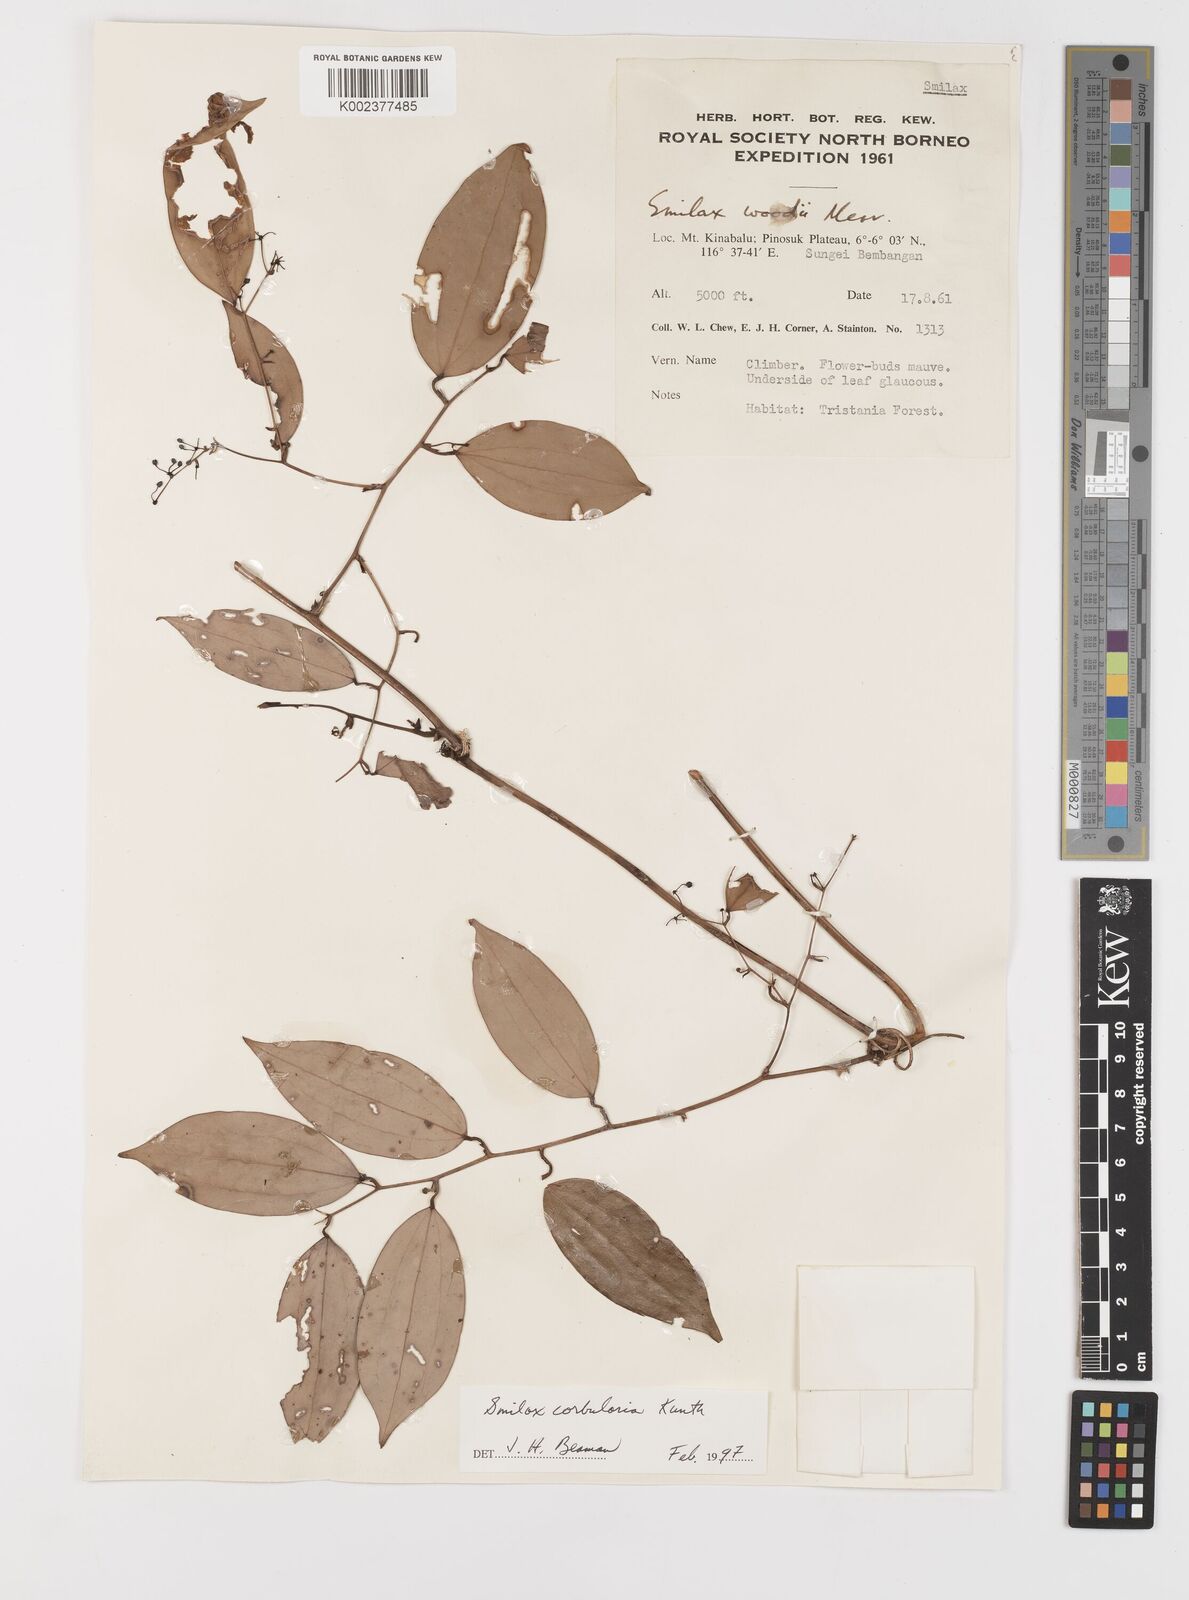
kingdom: Plantae
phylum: Tracheophyta
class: Liliopsida
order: Liliales
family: Smilacaceae
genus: Smilax
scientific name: Smilax corbularia
